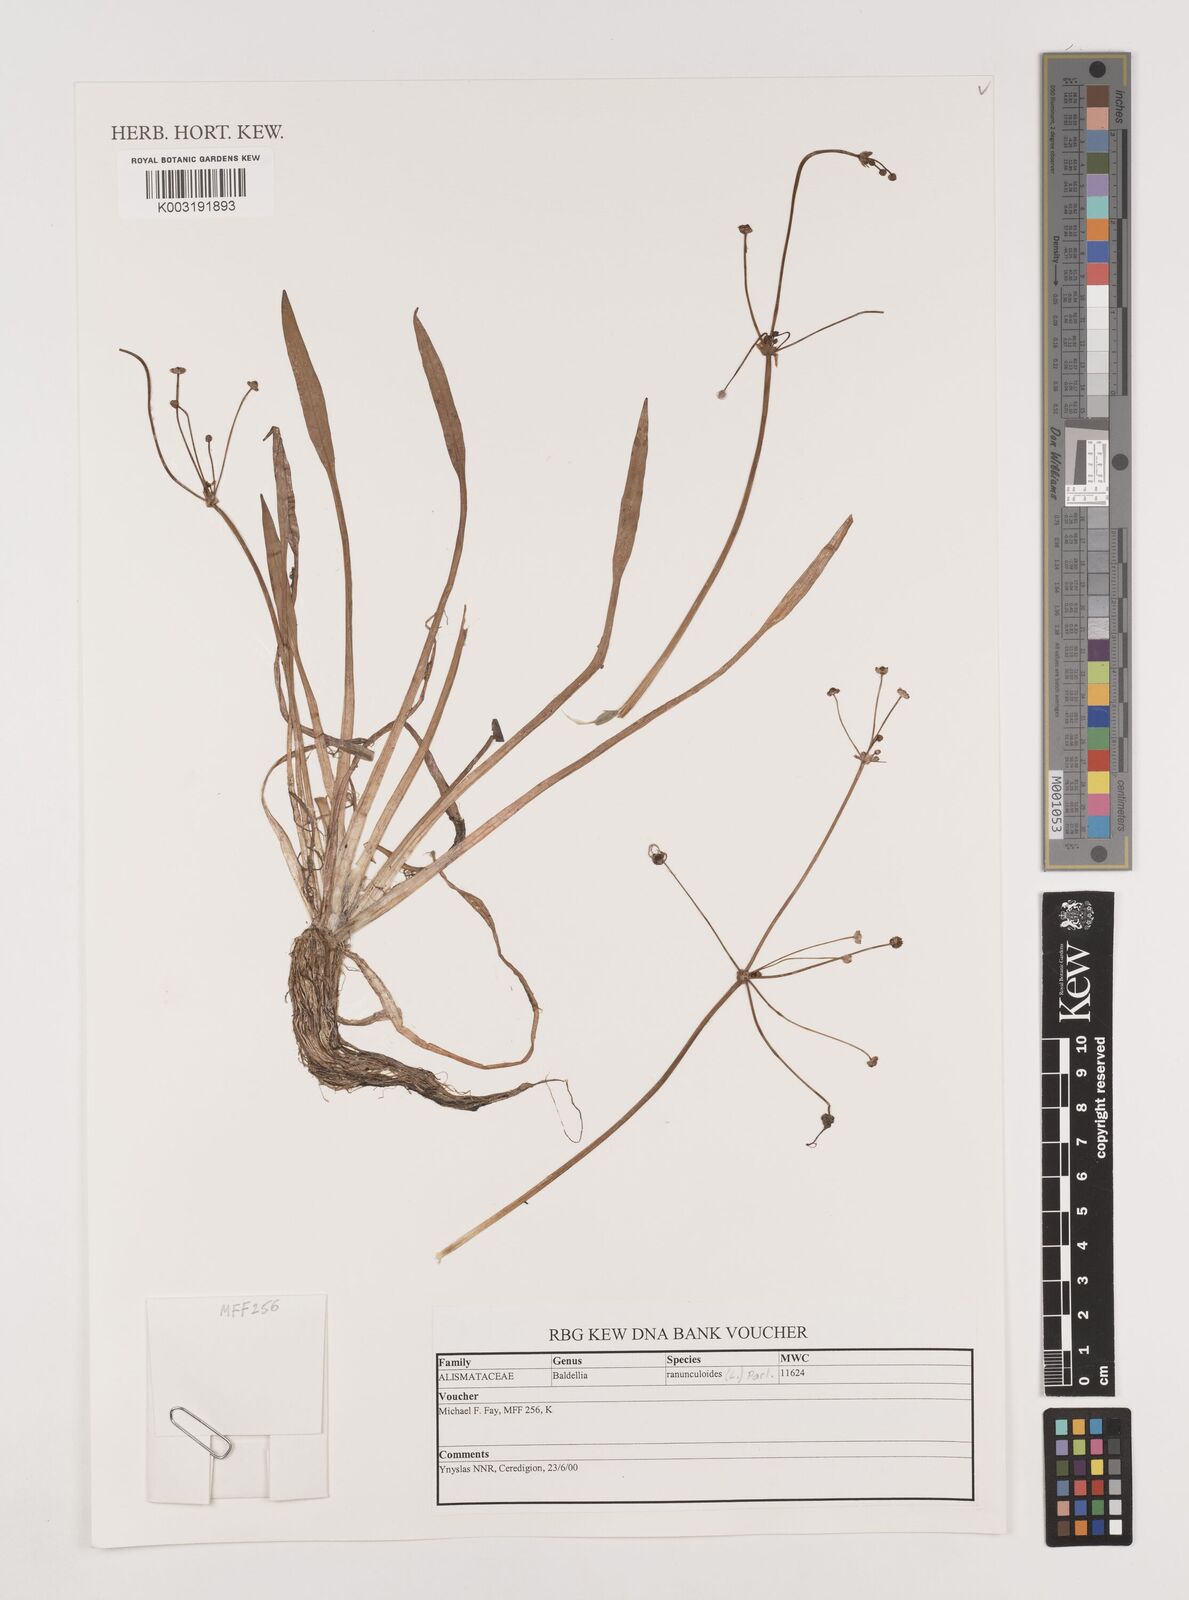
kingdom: Plantae
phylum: Tracheophyta
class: Liliopsida
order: Alismatales
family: Alismataceae
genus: Baldellia
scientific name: Baldellia ranunculoides
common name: Lesser water-plantain
